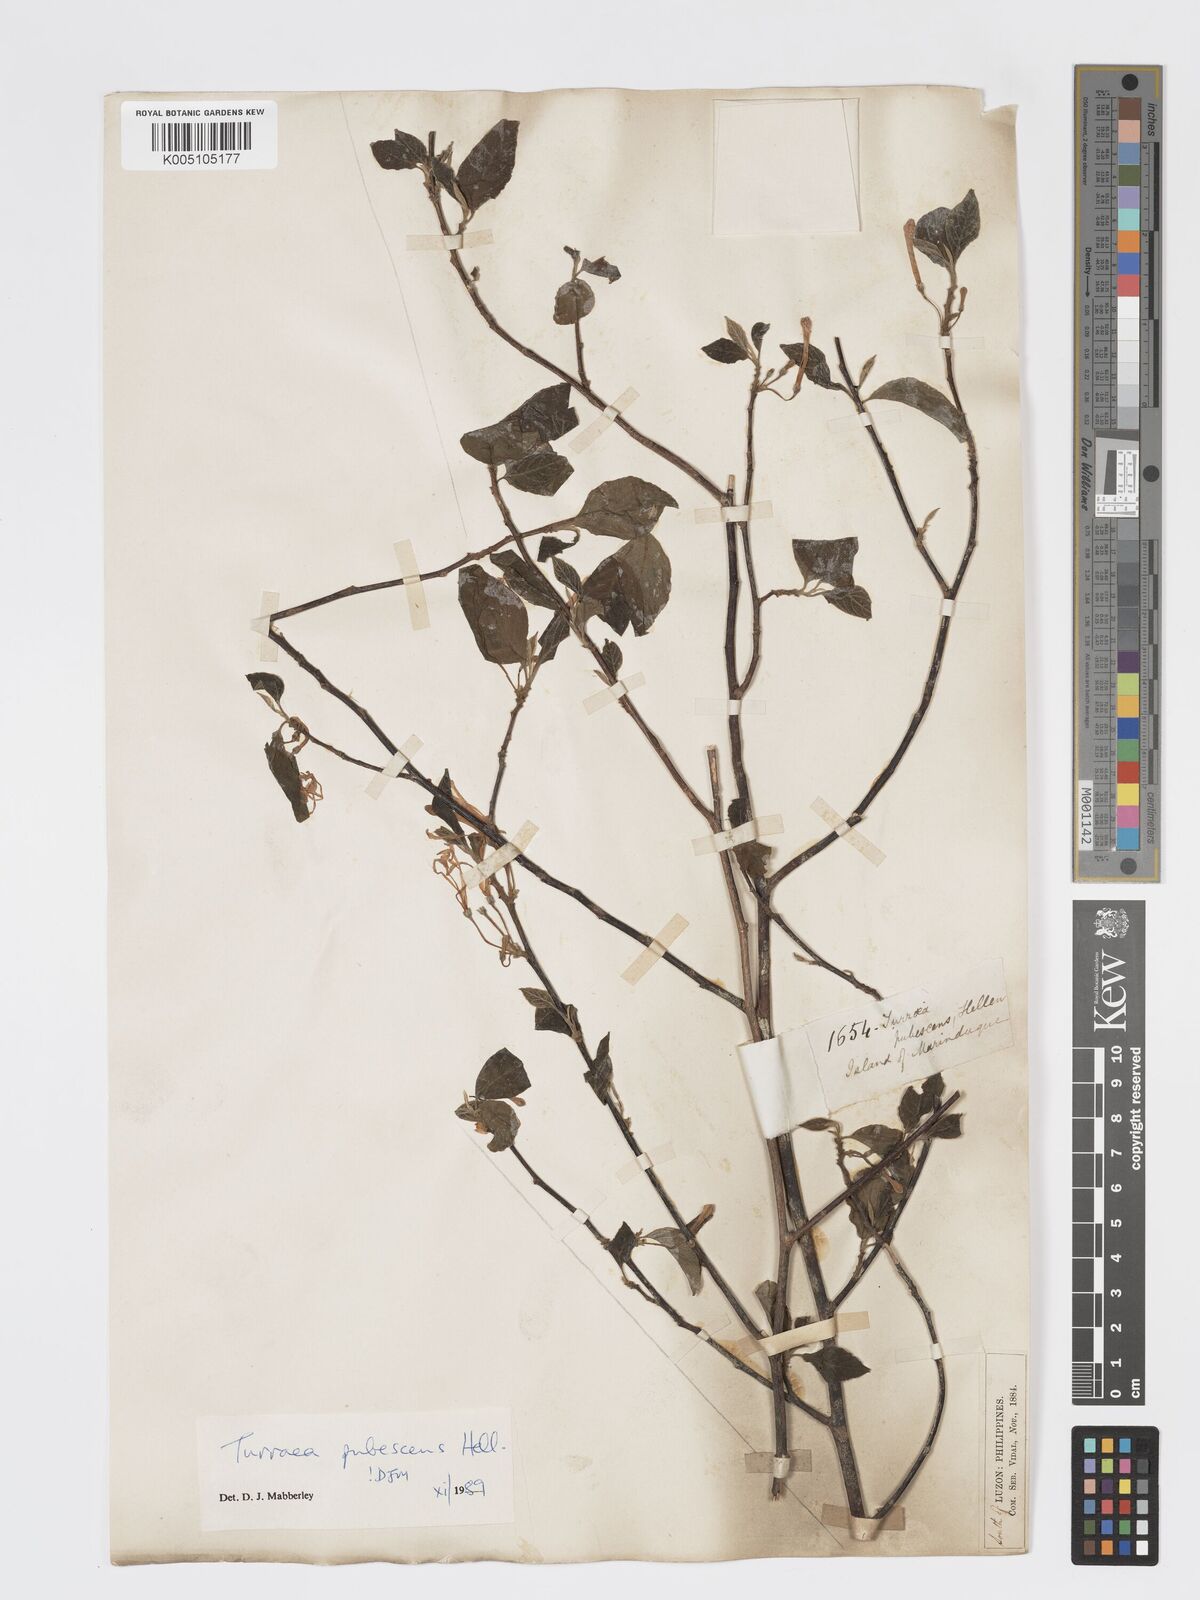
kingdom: Plantae
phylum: Tracheophyta
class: Magnoliopsida
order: Sapindales
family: Meliaceae
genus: Turraea
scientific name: Turraea
